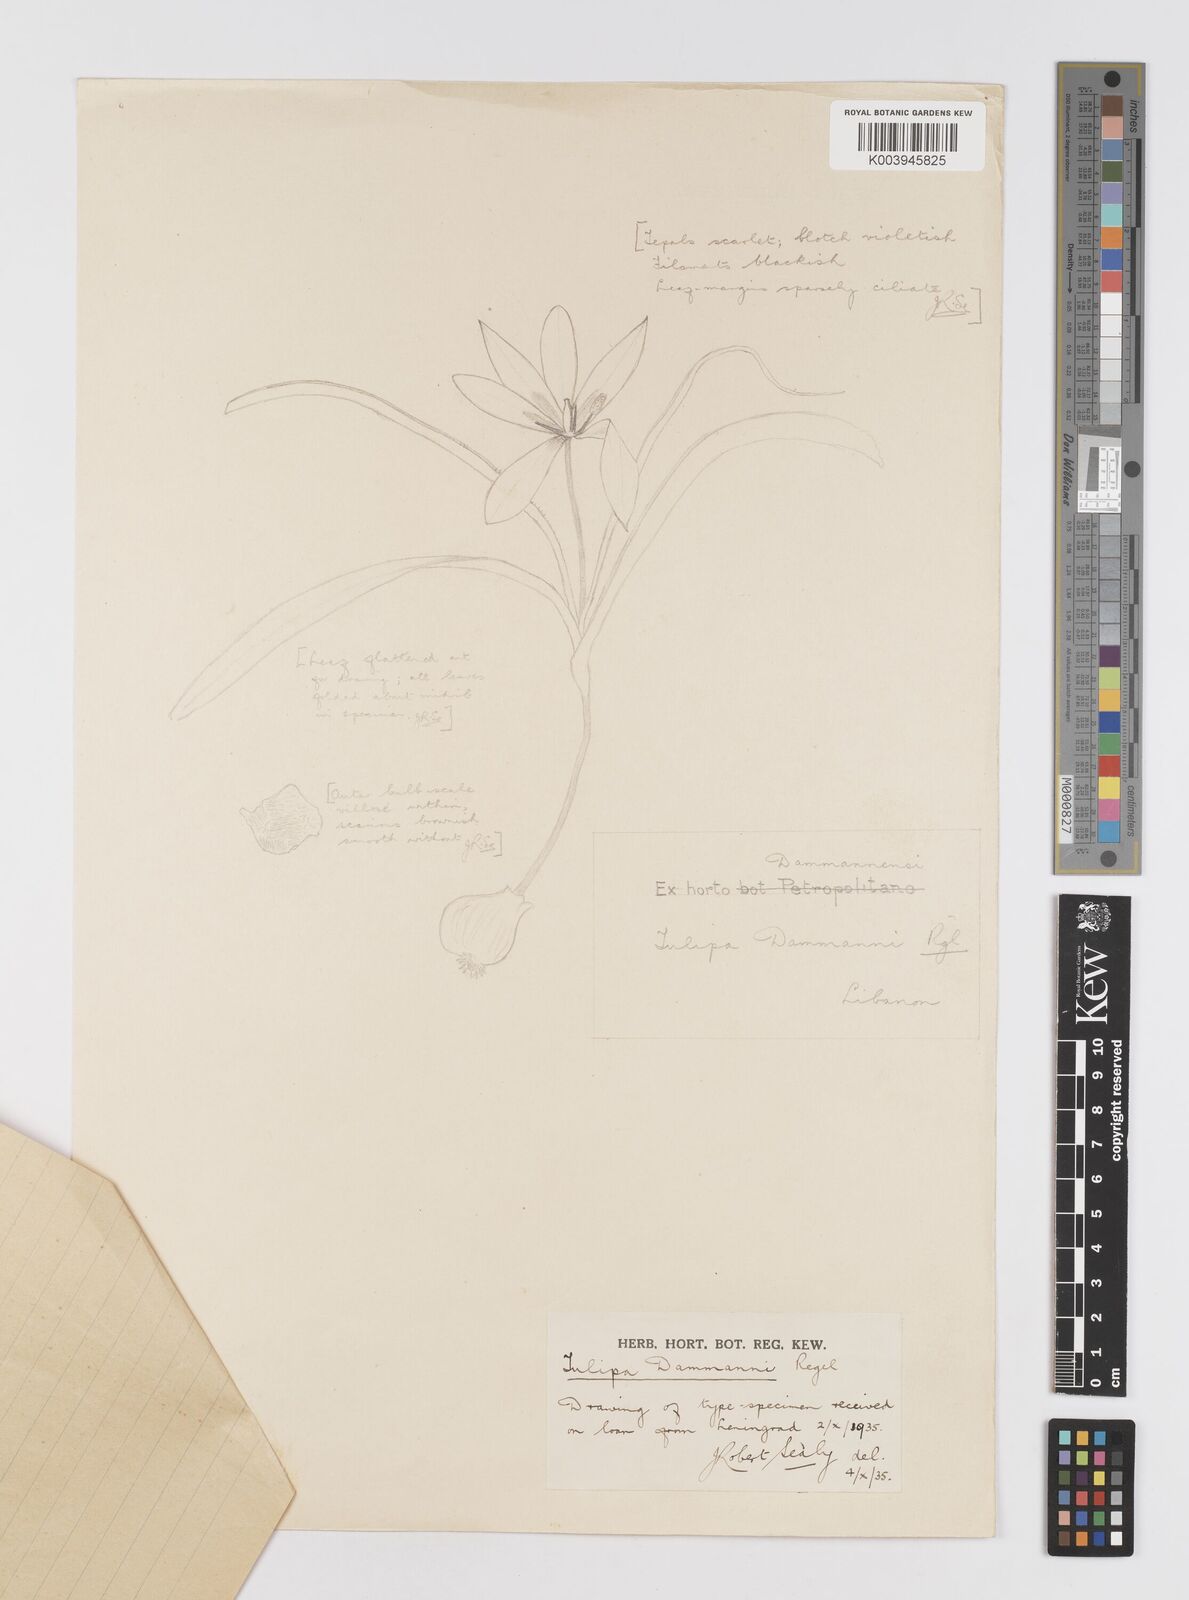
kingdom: Plantae
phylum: Tracheophyta
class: Liliopsida
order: Liliales
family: Liliaceae
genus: Tulipa
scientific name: Tulipa agenensis
